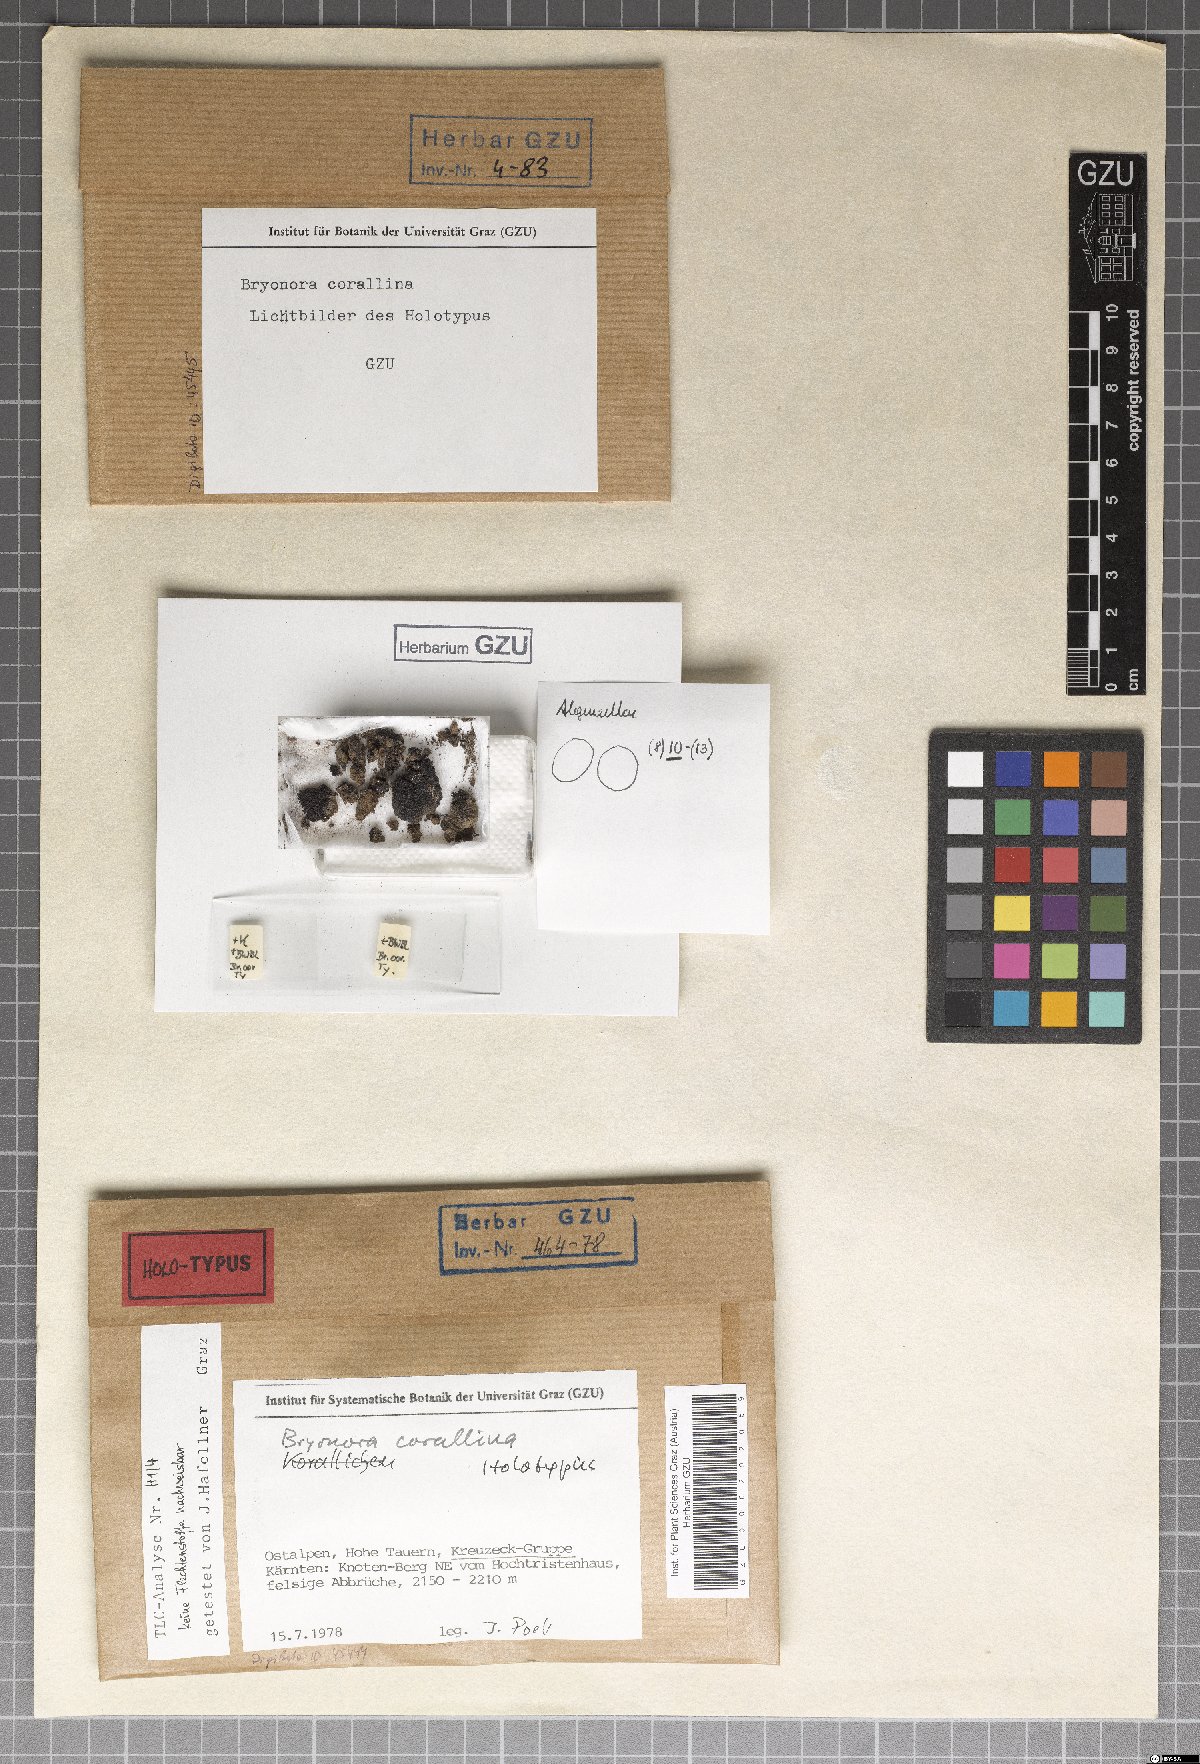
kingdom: Fungi
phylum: Ascomycota
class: Lecanoromycetes
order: Lecanorales
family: Lecanoraceae
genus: Bryonora
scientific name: Bryonora
